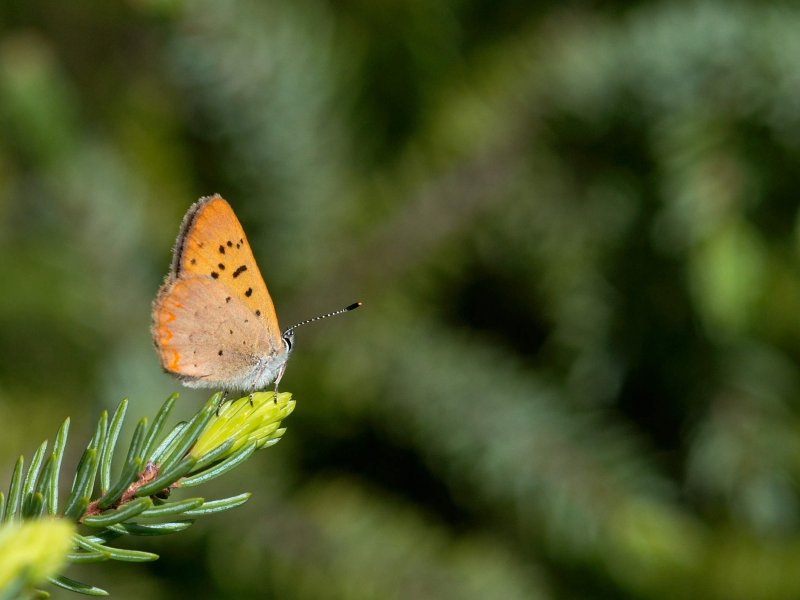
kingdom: Animalia
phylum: Arthropoda
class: Insecta
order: Lepidoptera
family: Lycaenidae
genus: Epidemia
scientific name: Epidemia dorcas
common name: Dorcas Copper
